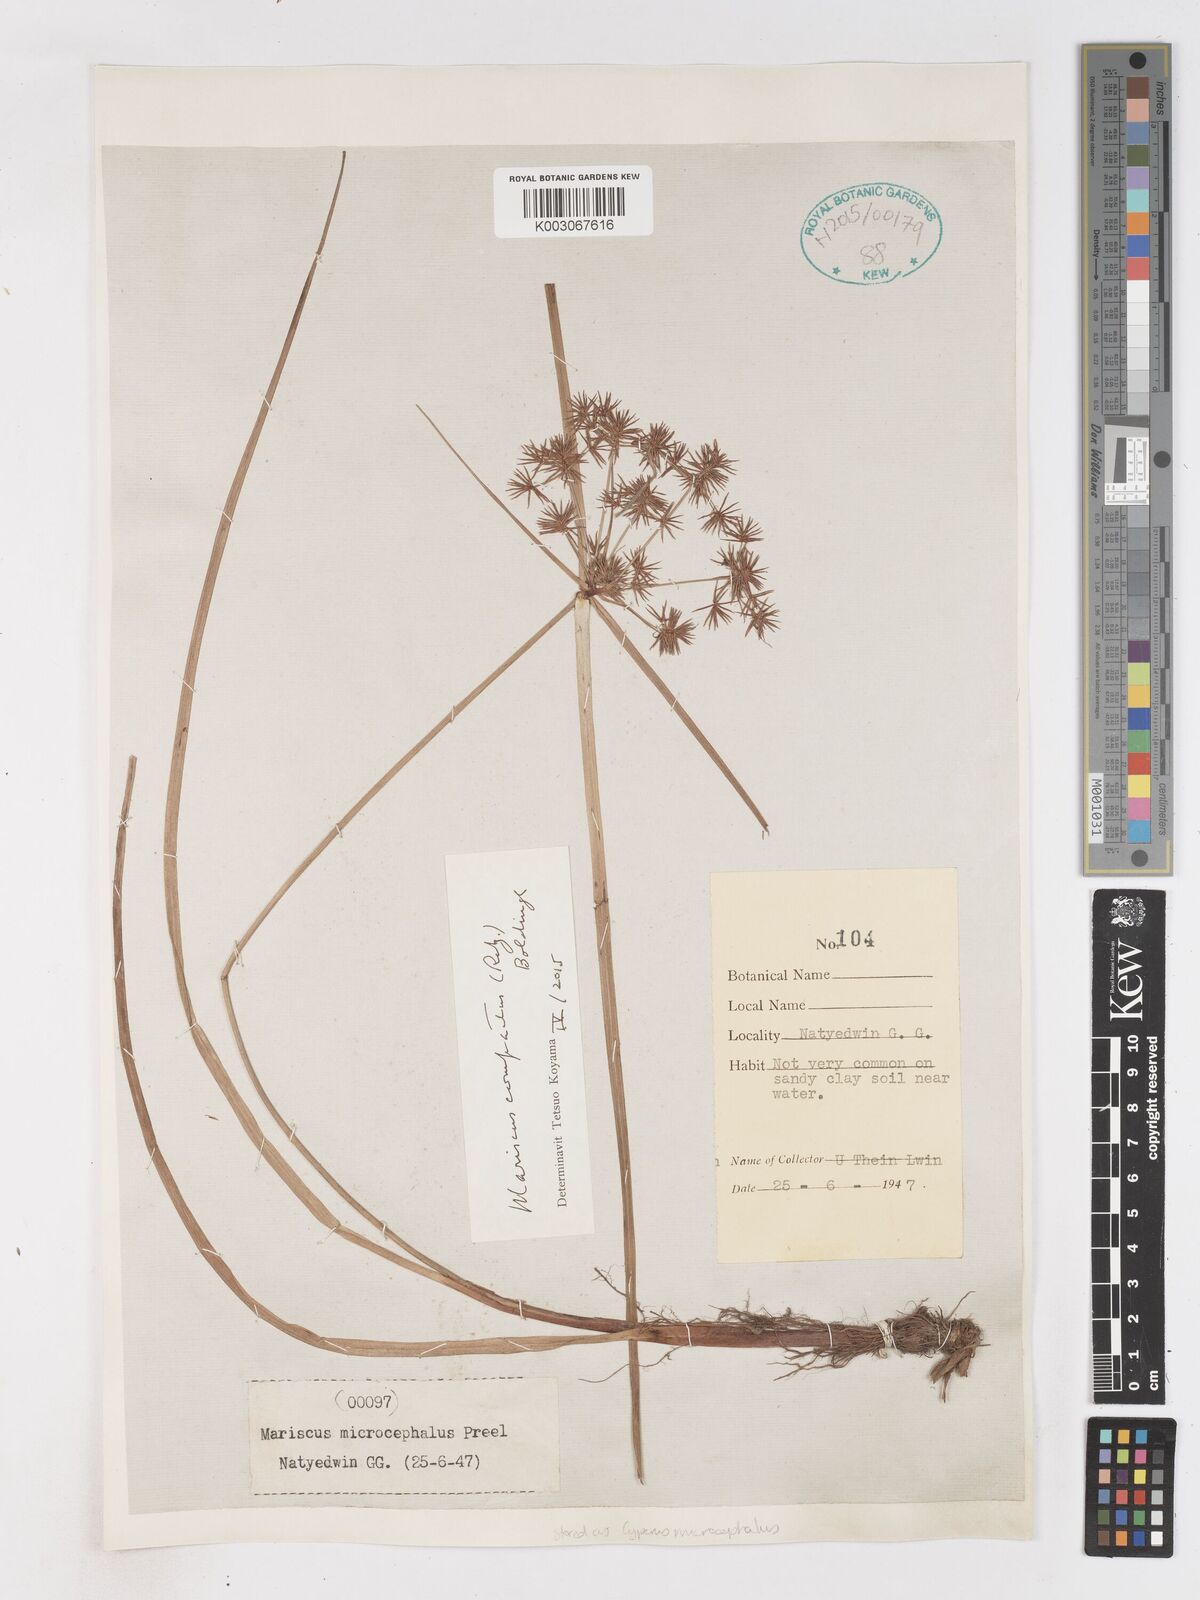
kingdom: Plantae
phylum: Tracheophyta
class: Liliopsida
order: Poales
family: Cyperaceae
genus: Cyperus
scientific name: Cyperus
